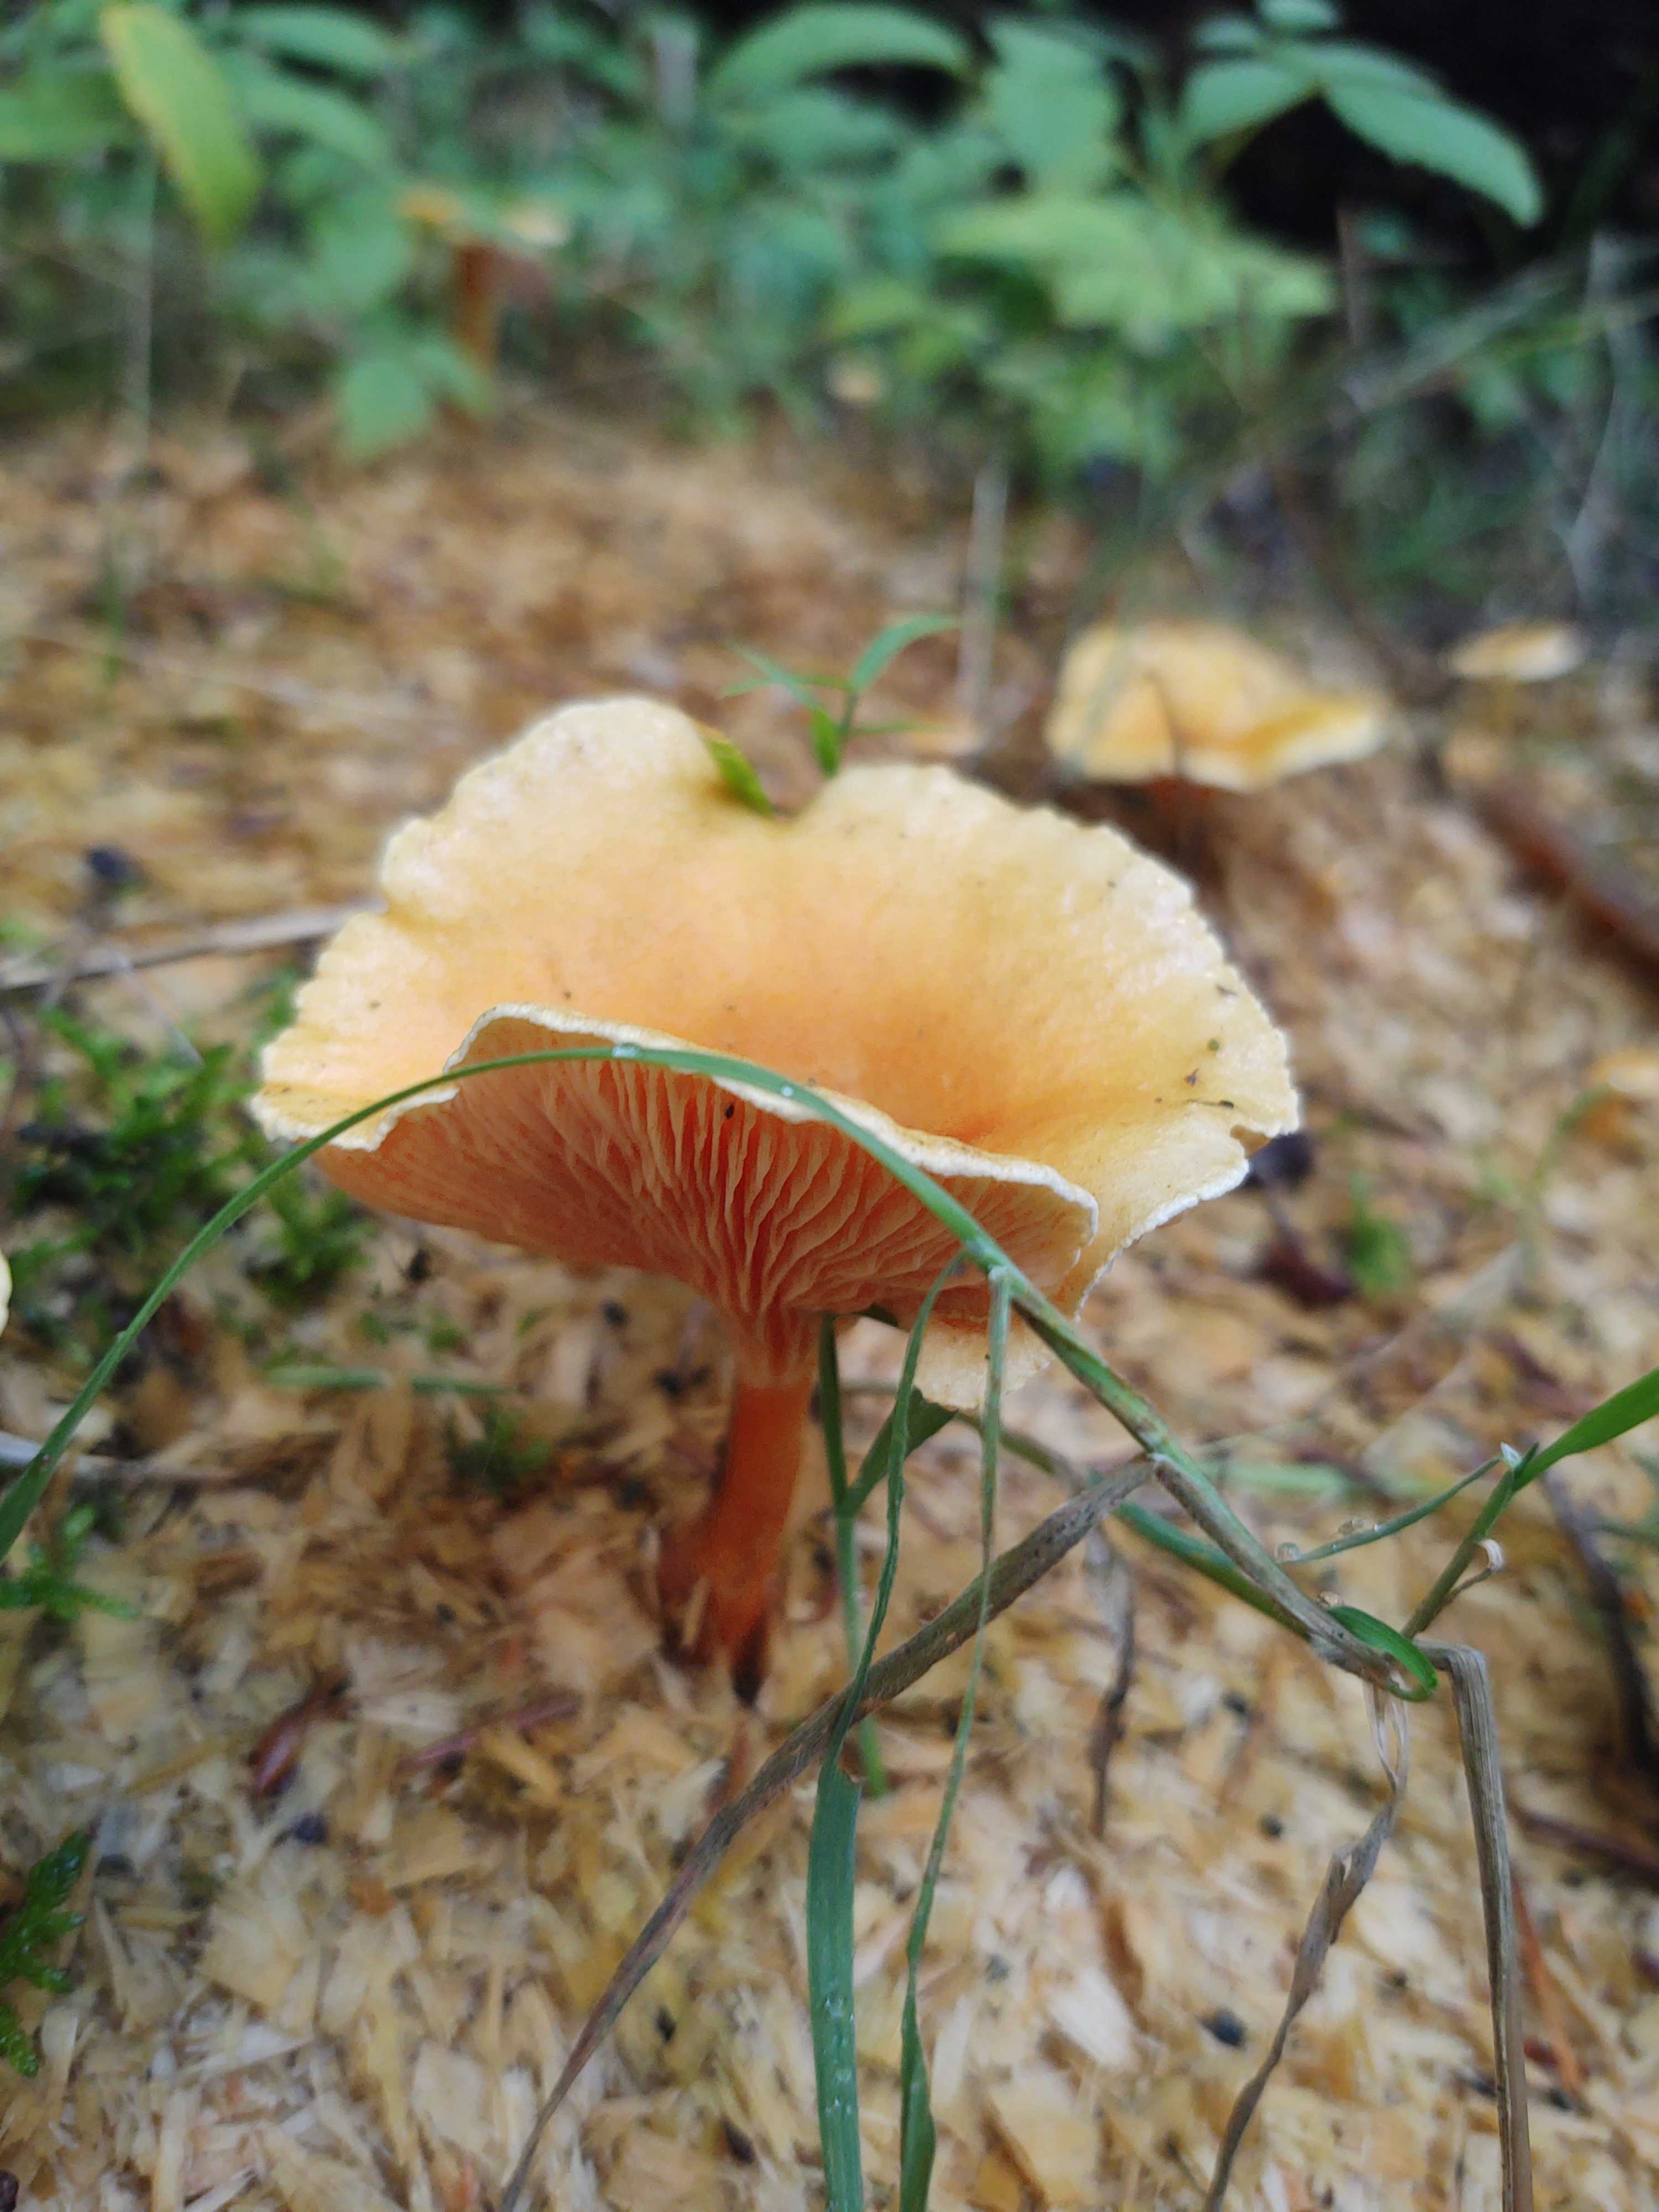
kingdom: Fungi
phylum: Basidiomycota
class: Agaricomycetes
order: Boletales
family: Hygrophoropsidaceae
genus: Hygrophoropsis
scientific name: Hygrophoropsis aurantiaca
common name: almindelig orangekantarel
